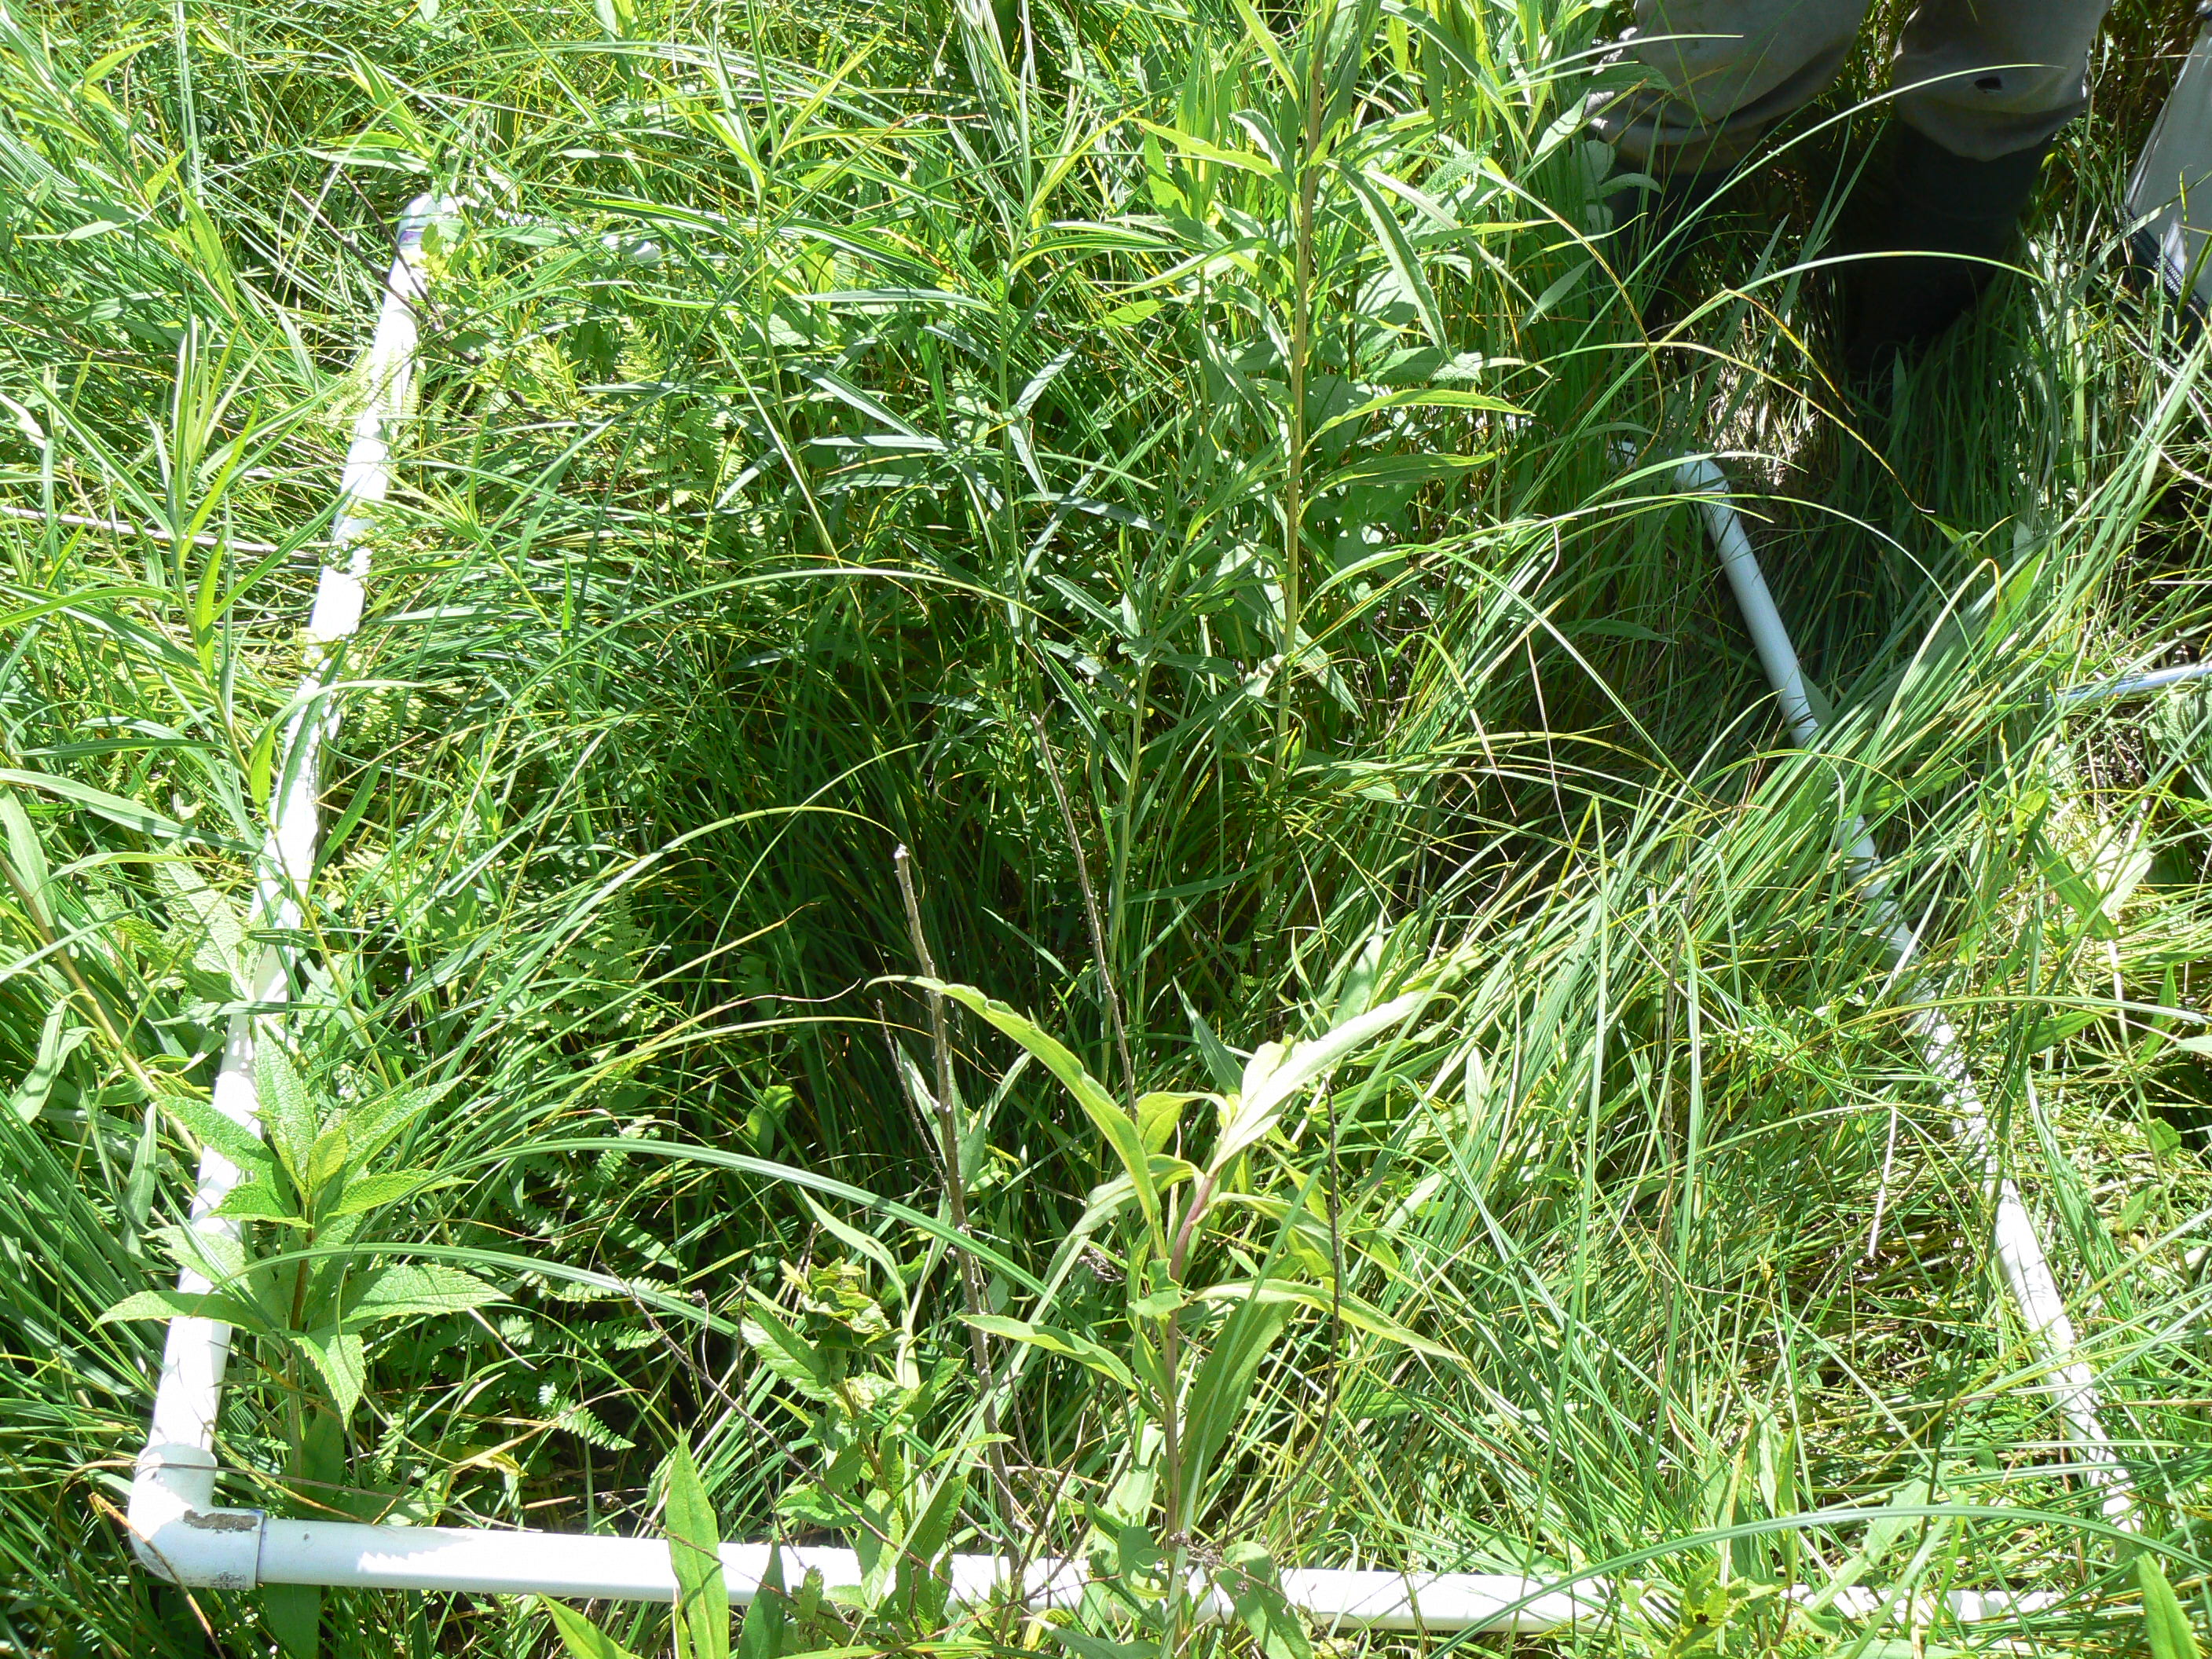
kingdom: Plantae
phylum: Tracheophyta
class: Liliopsida
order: Poales
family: Cyperaceae
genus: Carex
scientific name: Carex stricta
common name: Hummock sedge
